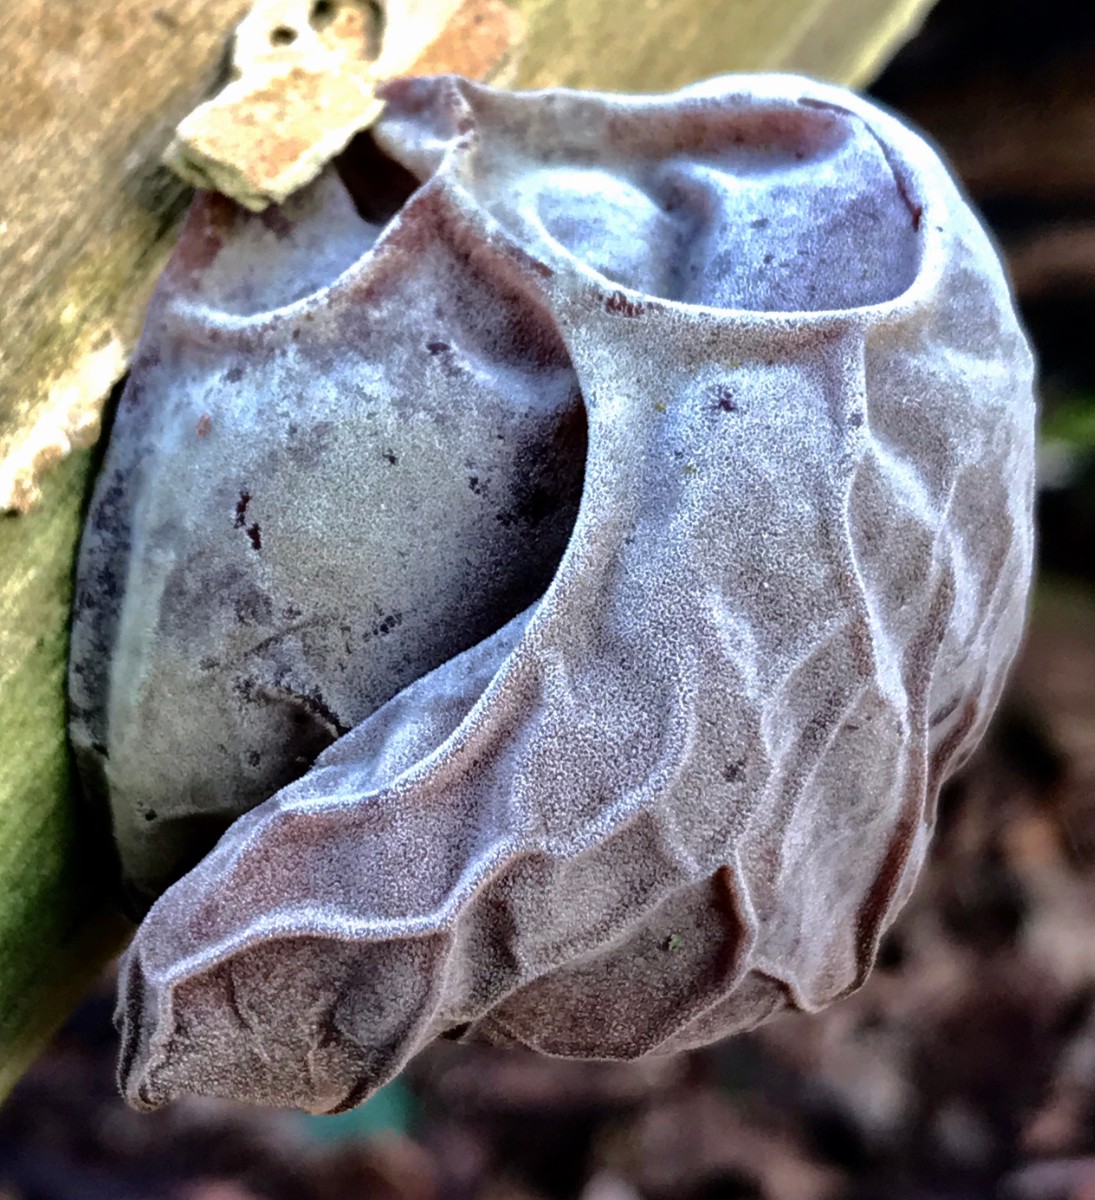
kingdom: Fungi
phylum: Basidiomycota
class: Agaricomycetes
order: Auriculariales
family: Auriculariaceae
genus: Auricularia
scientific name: Auricularia auricula-judae
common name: almindelig judasøre
